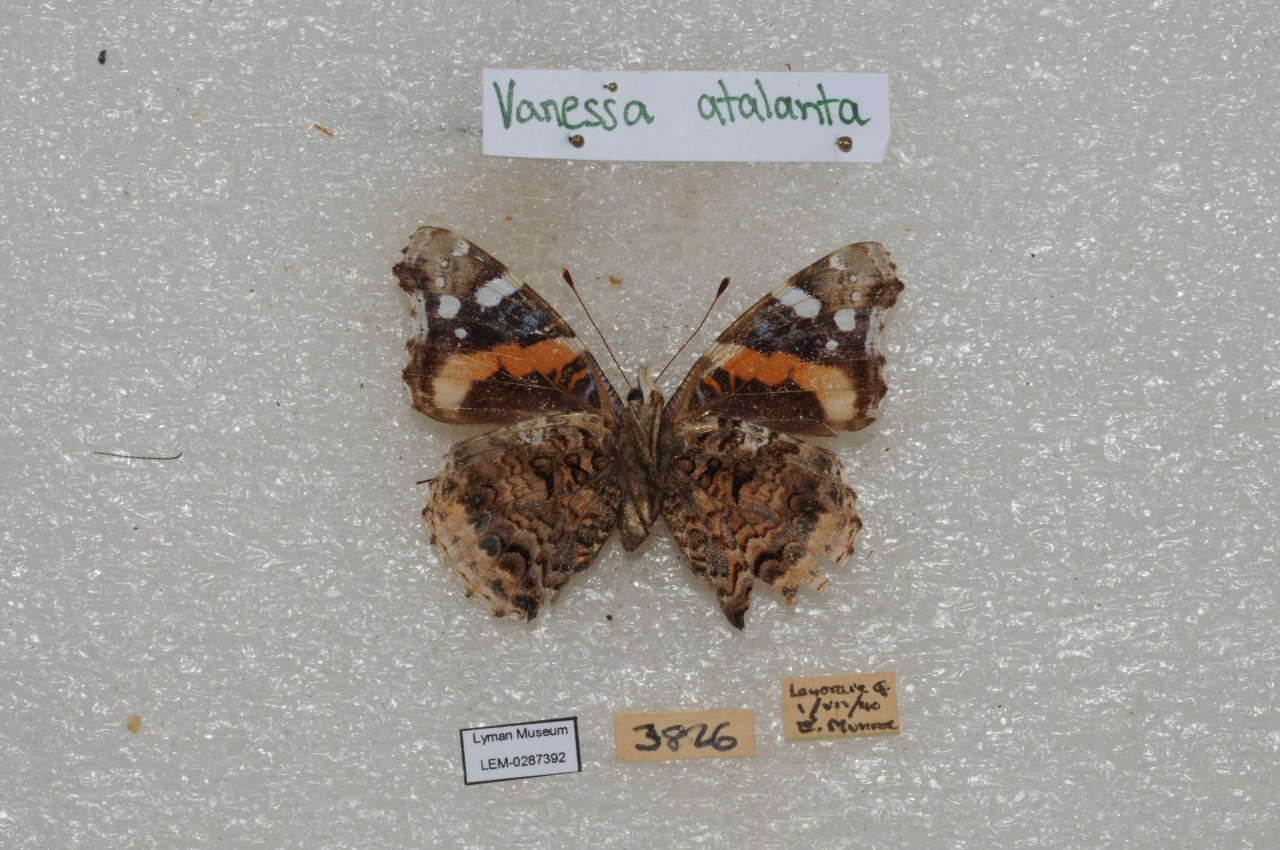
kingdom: Animalia
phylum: Arthropoda
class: Insecta
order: Lepidoptera
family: Nymphalidae
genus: Vanessa
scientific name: Vanessa atalanta
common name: Red Admiral
